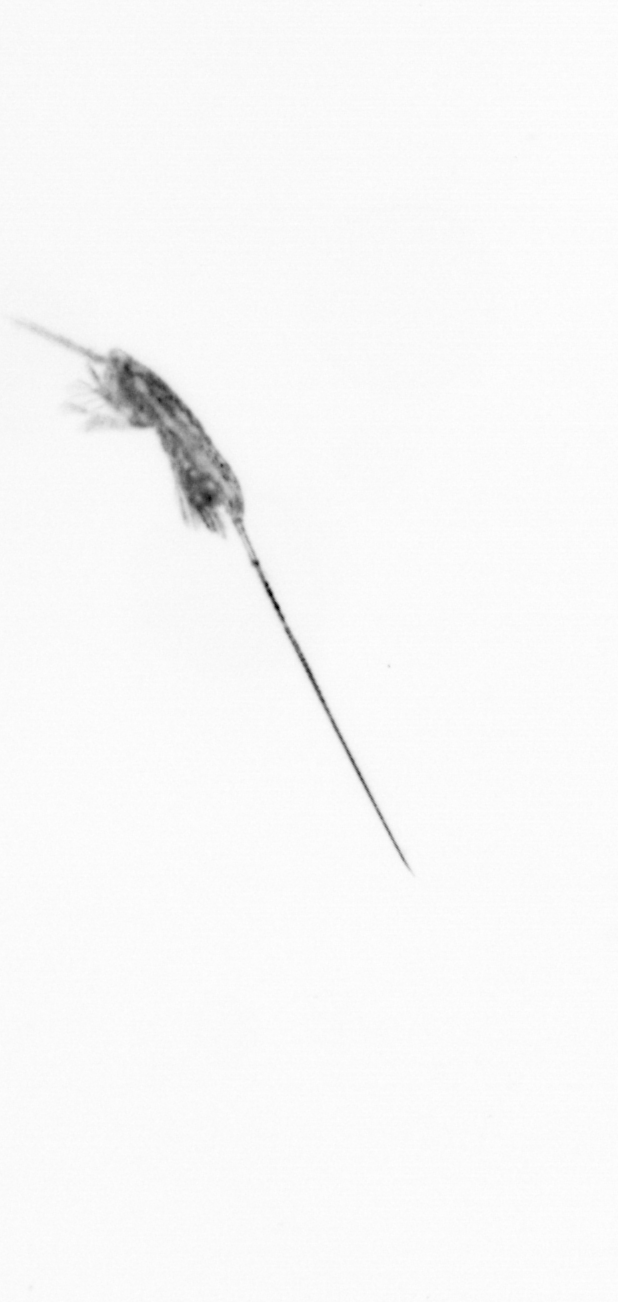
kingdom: Animalia
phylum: Arthropoda
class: Copepoda
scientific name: Copepoda
